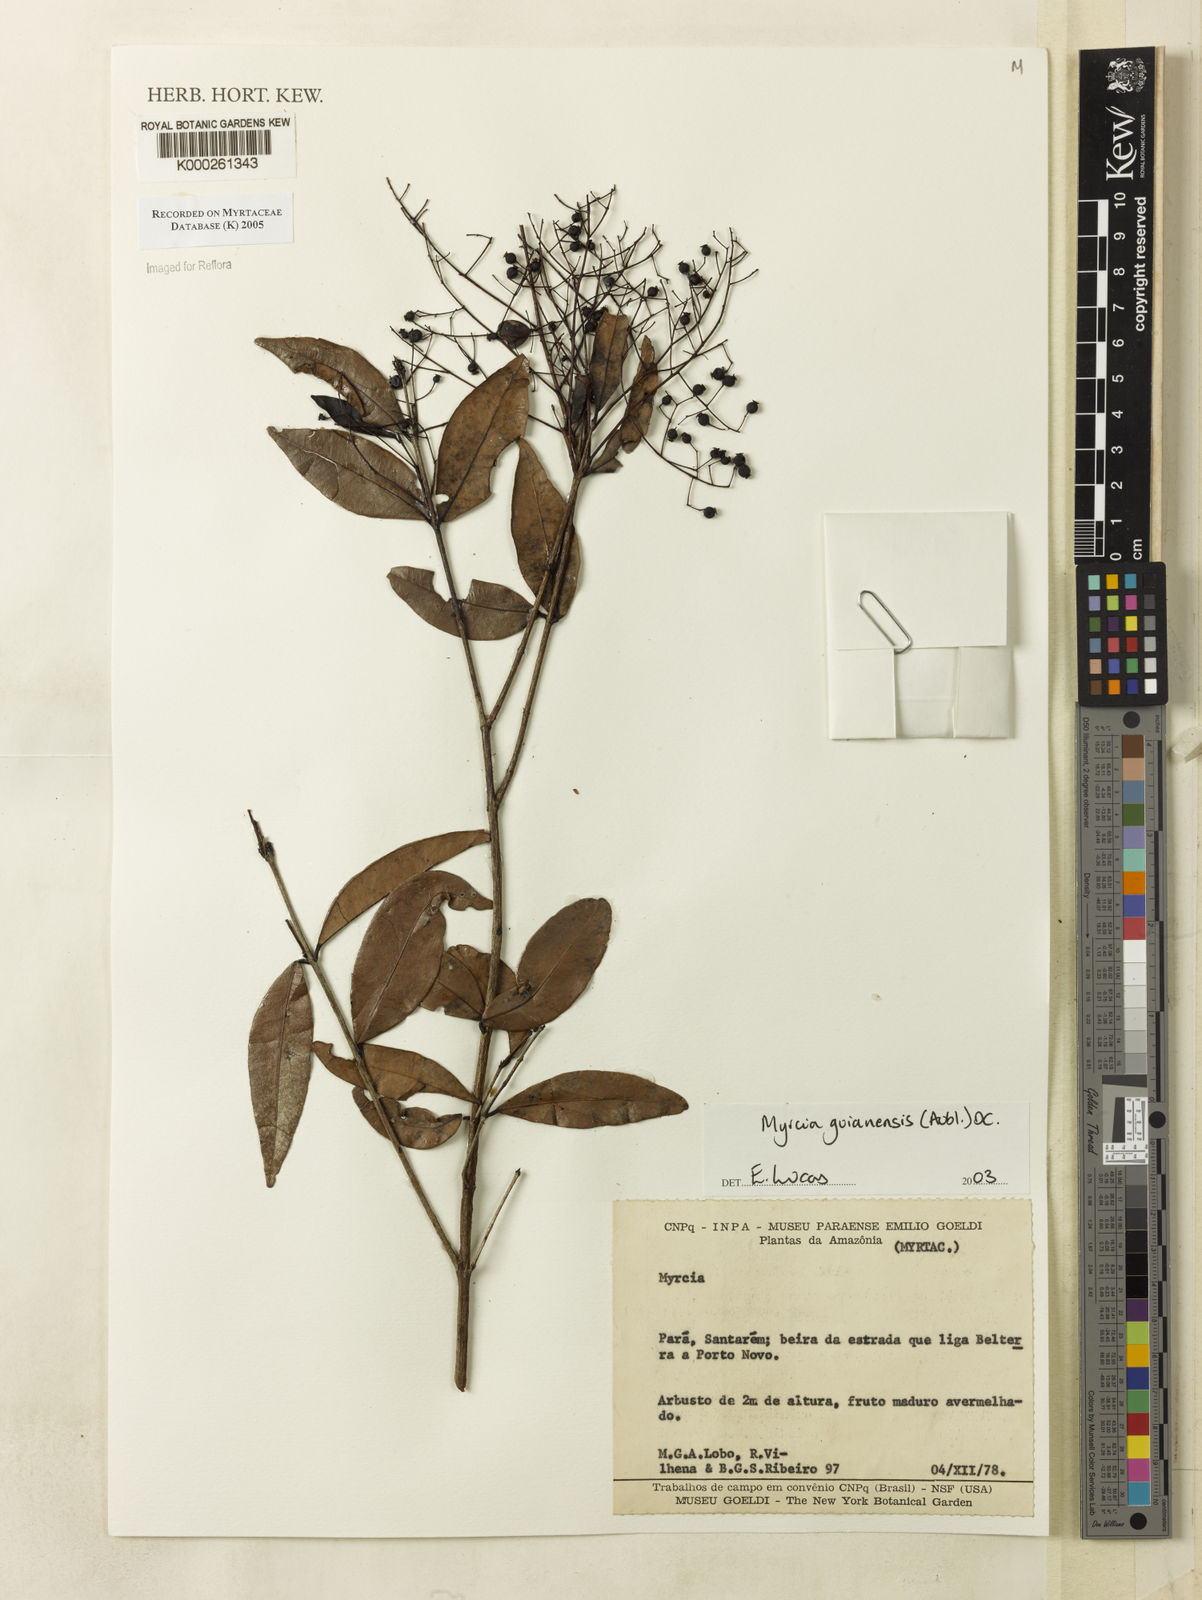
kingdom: Plantae
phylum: Tracheophyta
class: Magnoliopsida
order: Myrtales
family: Myrtaceae
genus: Myrcia
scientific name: Myrcia guianensis
